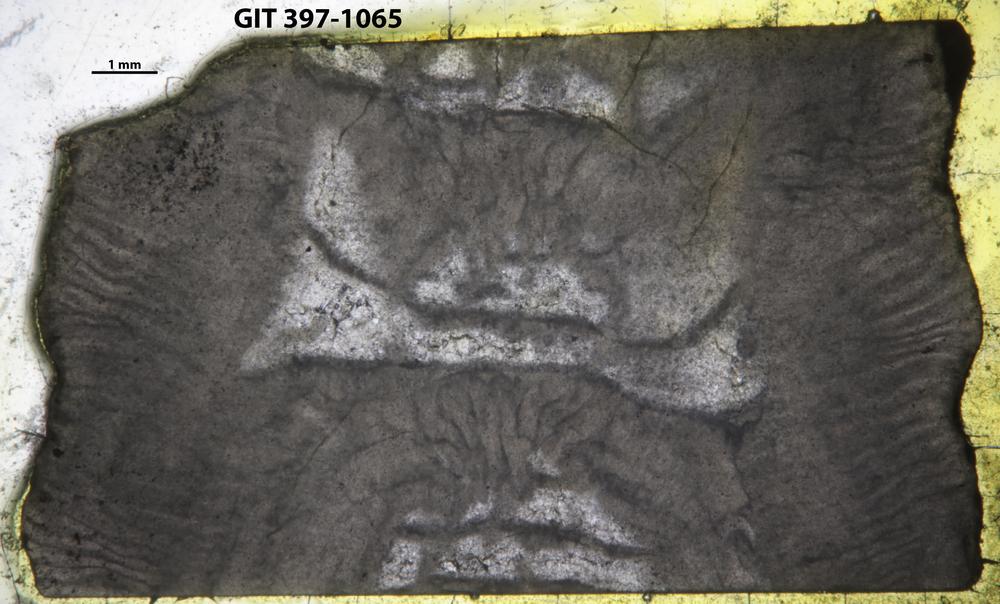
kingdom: Animalia
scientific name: Animalia
